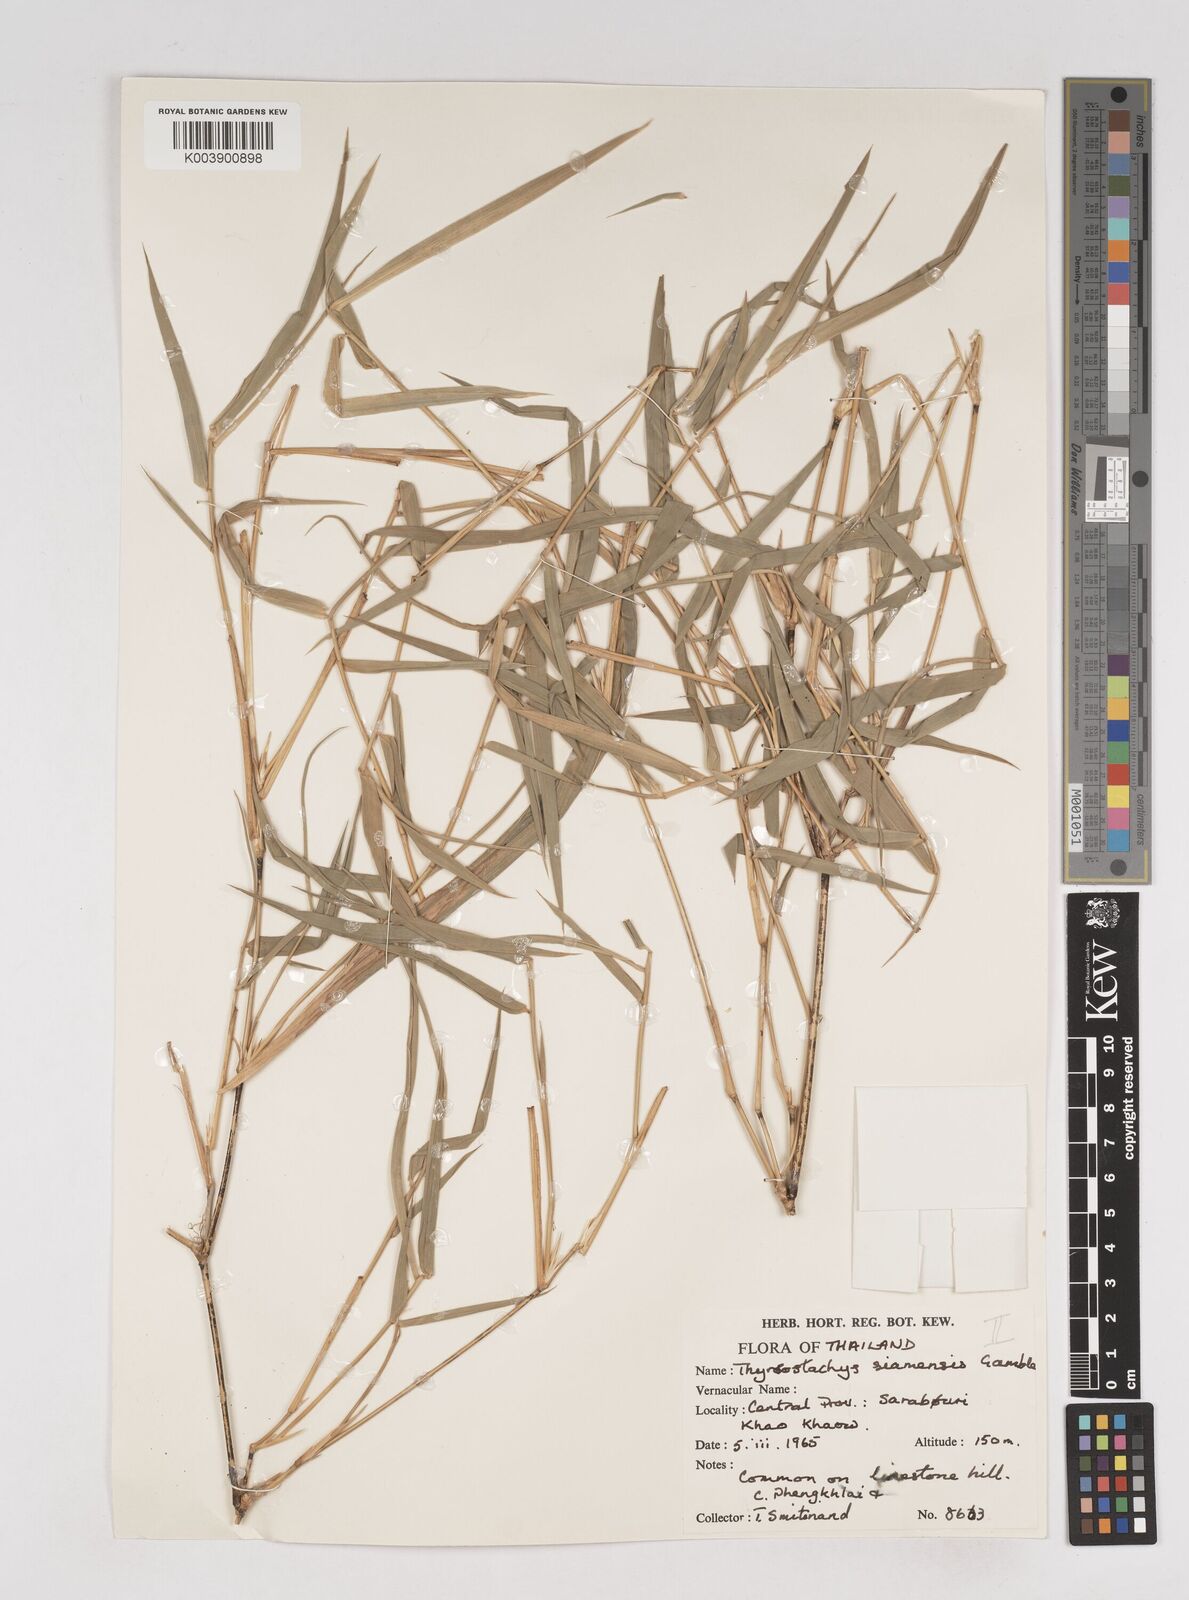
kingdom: Plantae
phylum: Tracheophyta
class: Liliopsida
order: Poales
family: Poaceae
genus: Thyrsostachys
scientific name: Thyrsostachys siamensis
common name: Thailand bamboo
